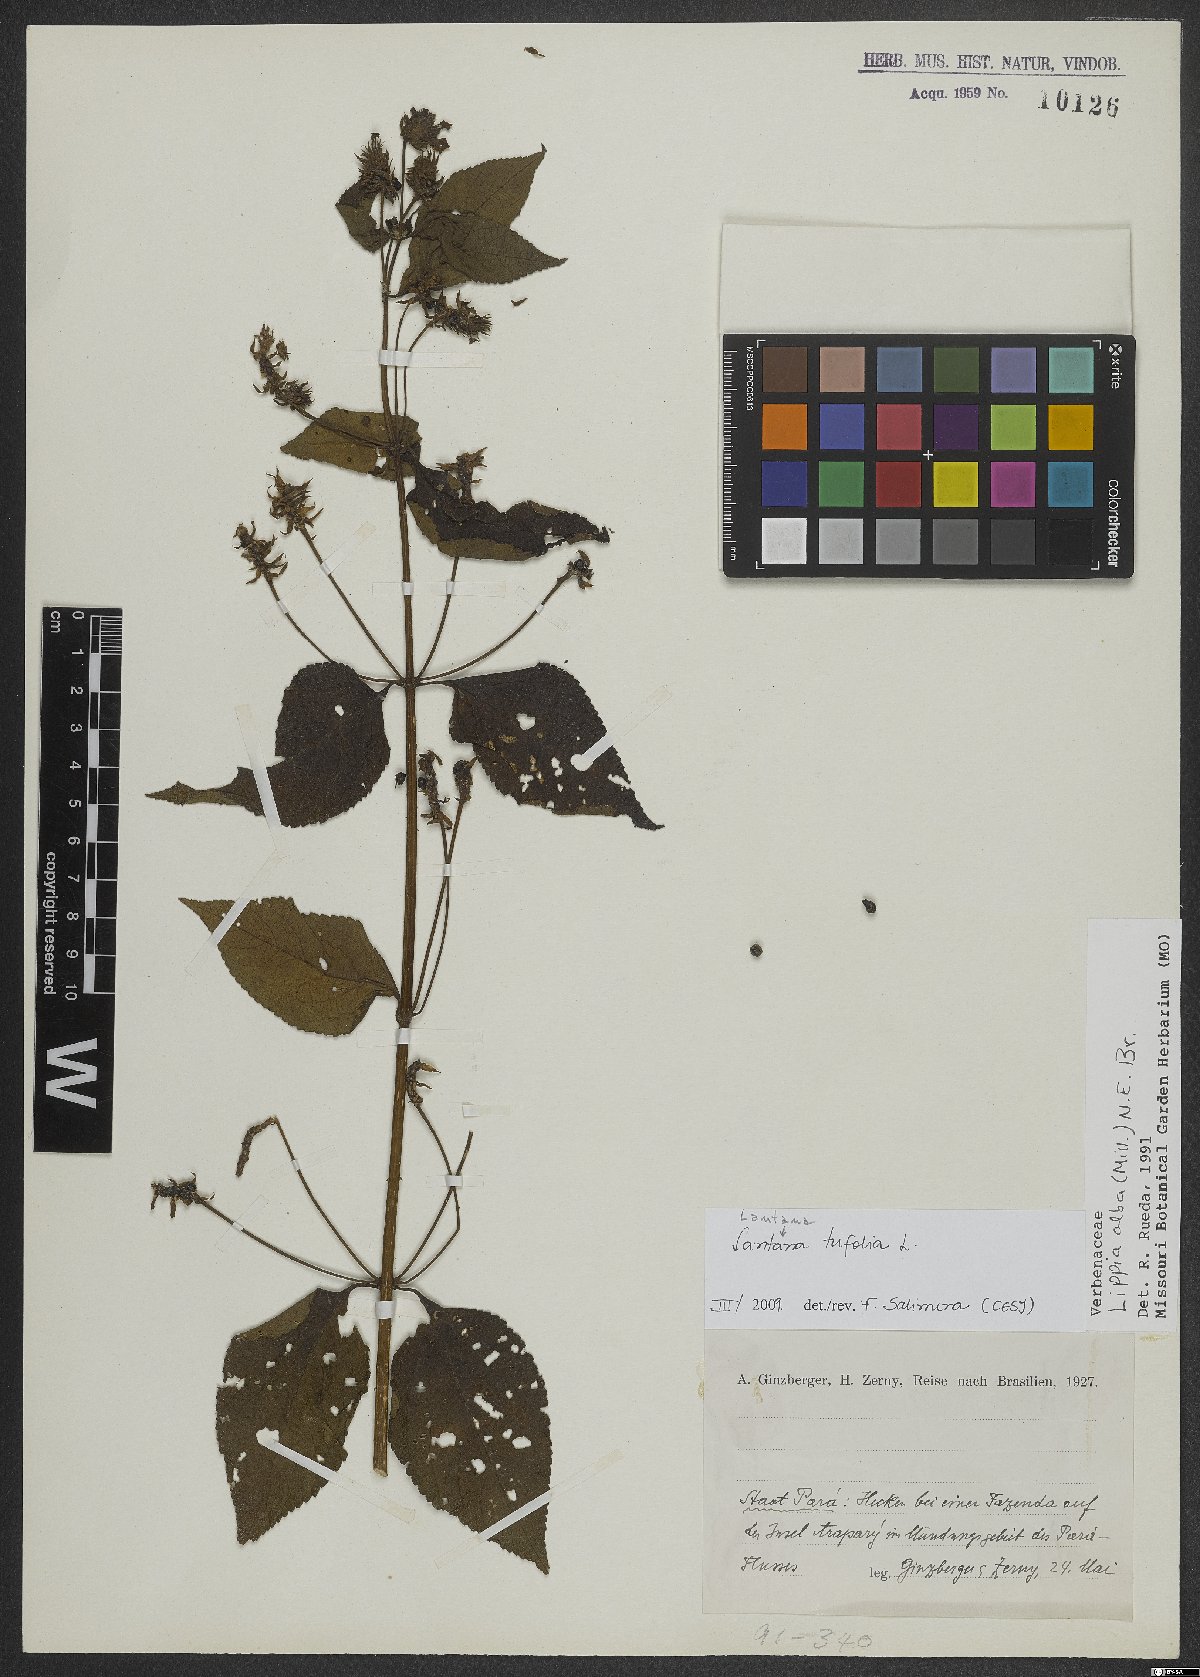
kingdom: Plantae
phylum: Tracheophyta
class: Magnoliopsida
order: Lamiales
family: Verbenaceae
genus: Lantana
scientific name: Lantana trifolia
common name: Sweet-sage
